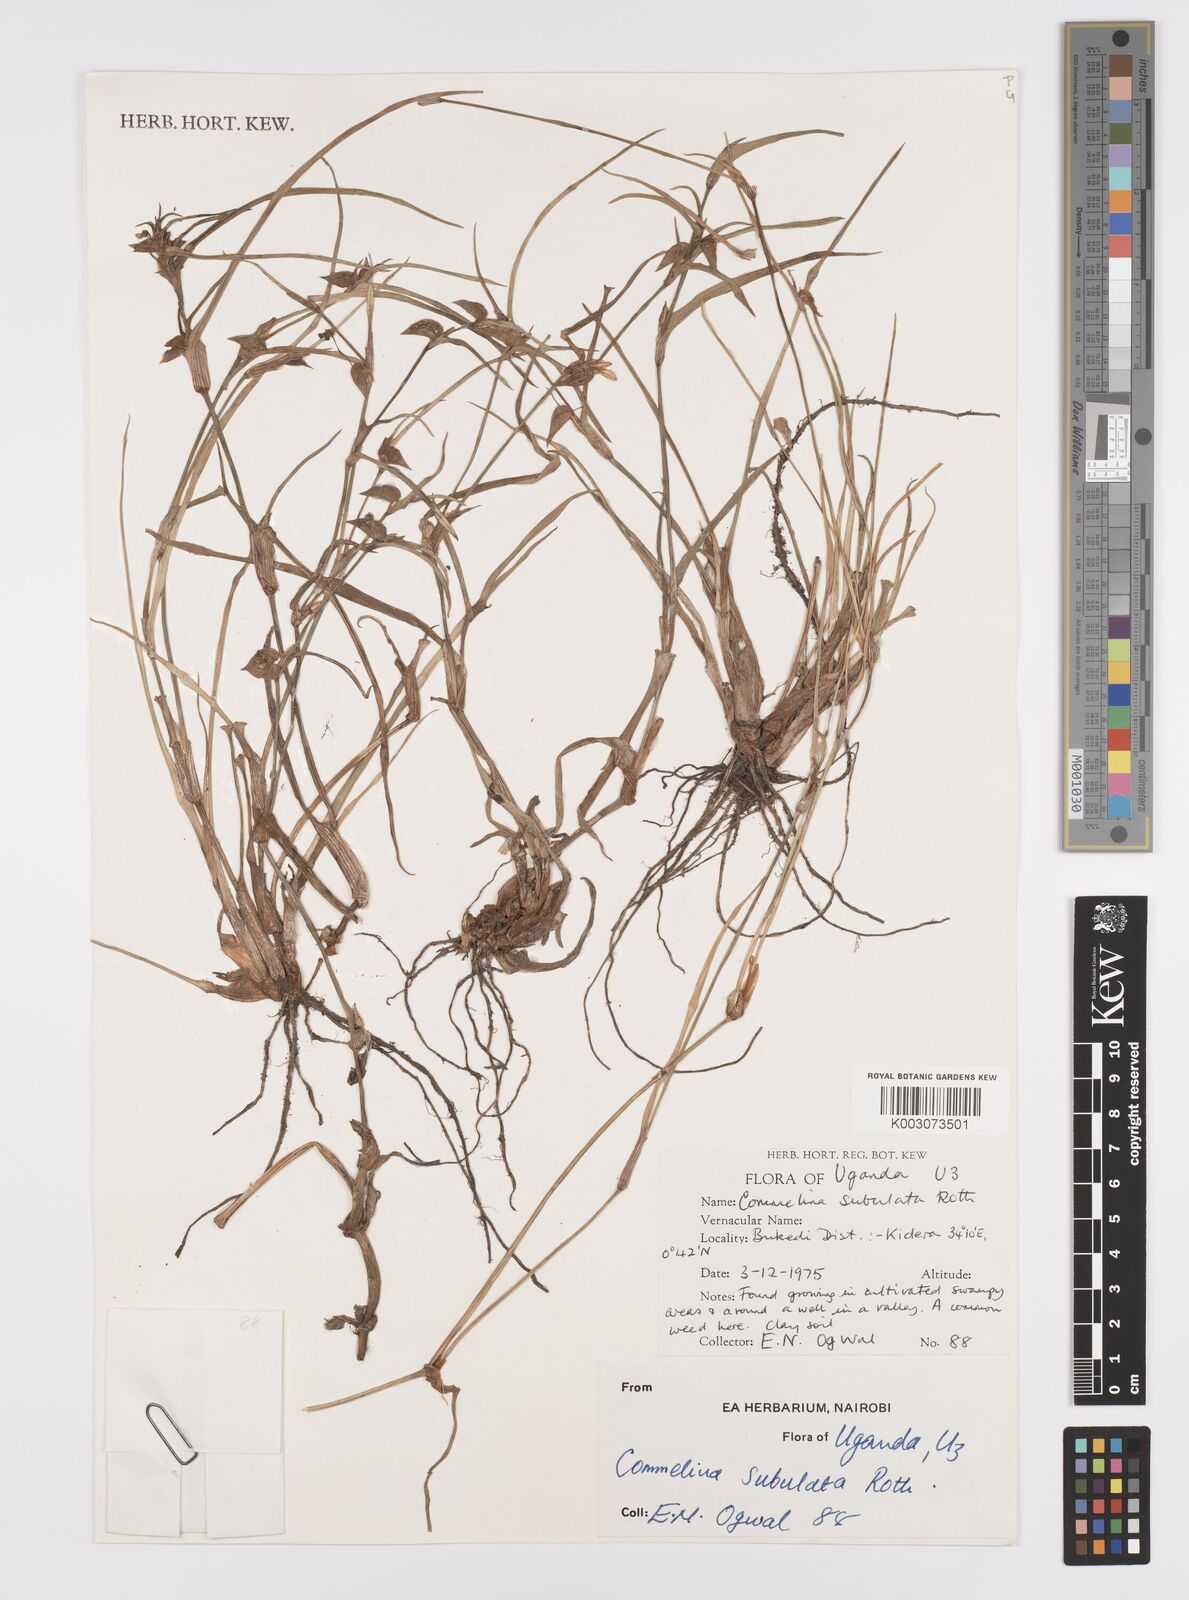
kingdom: Plantae
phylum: Tracheophyta
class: Liliopsida
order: Commelinales
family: Commelinaceae
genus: Commelina
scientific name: Commelina subulata
